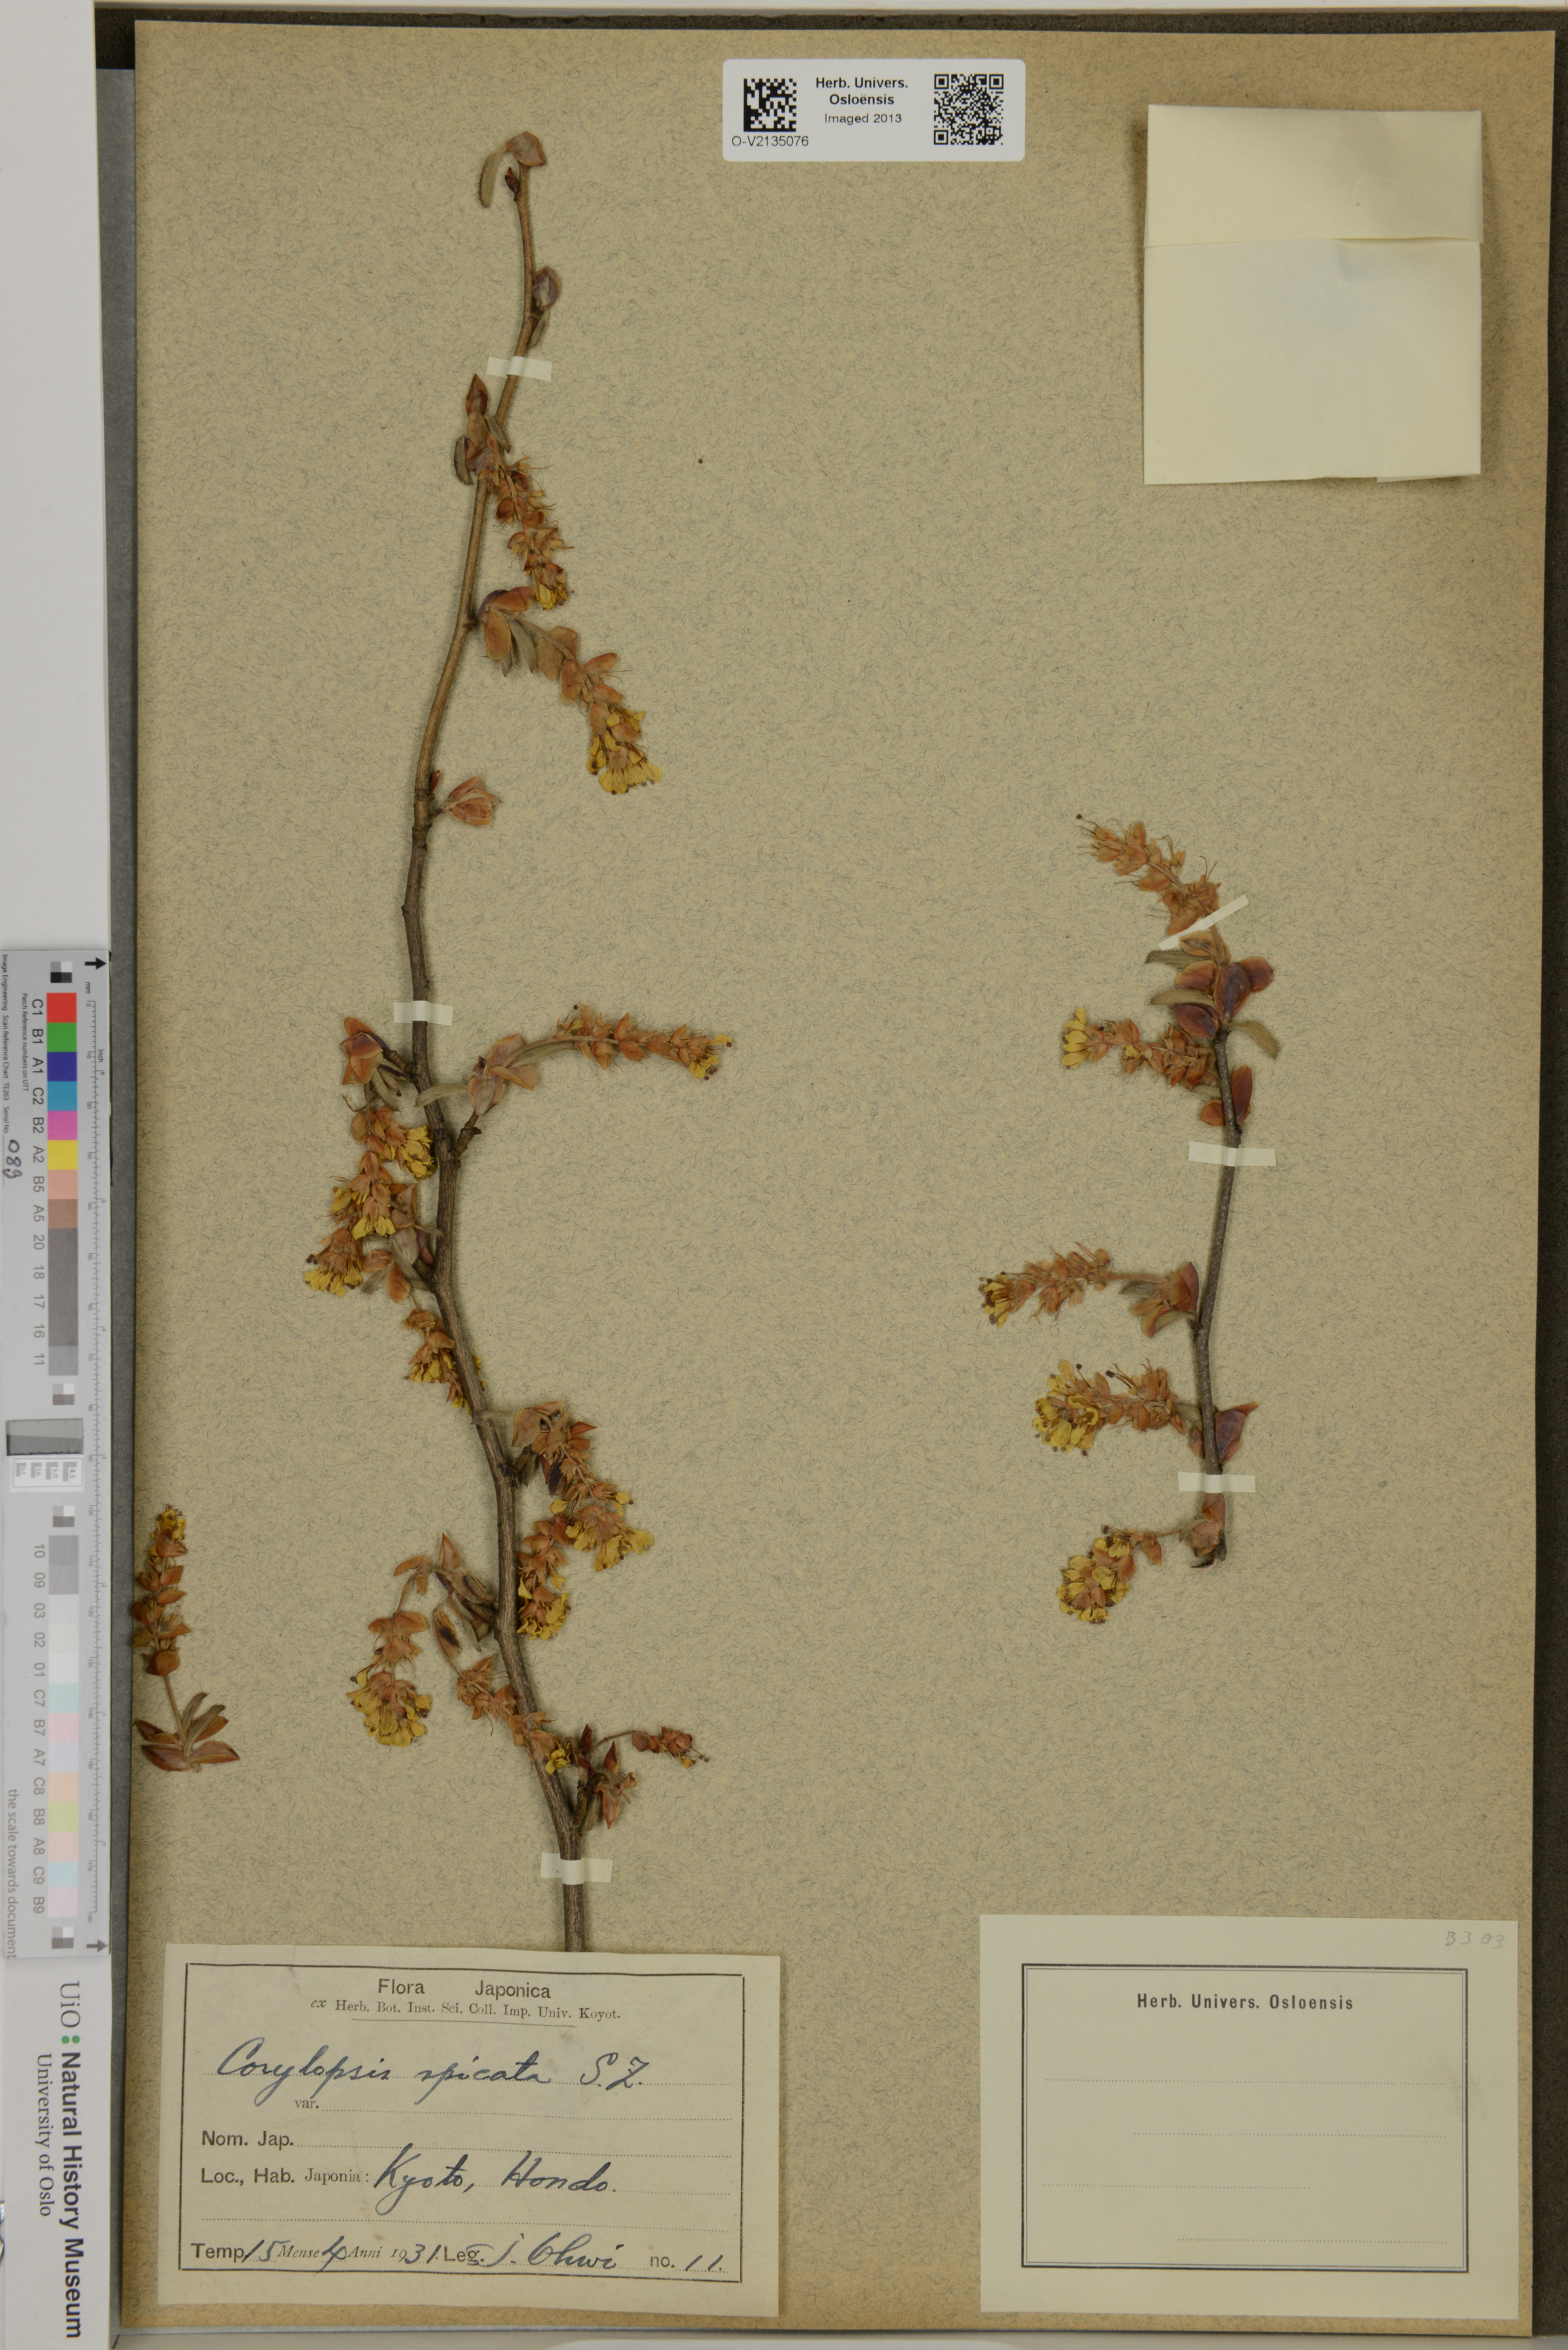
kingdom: Plantae
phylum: Tracheophyta
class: Magnoliopsida
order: Saxifragales
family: Hamamelidaceae
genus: Corylopsis
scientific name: Corylopsis spicata
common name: Spike winter-hazel
